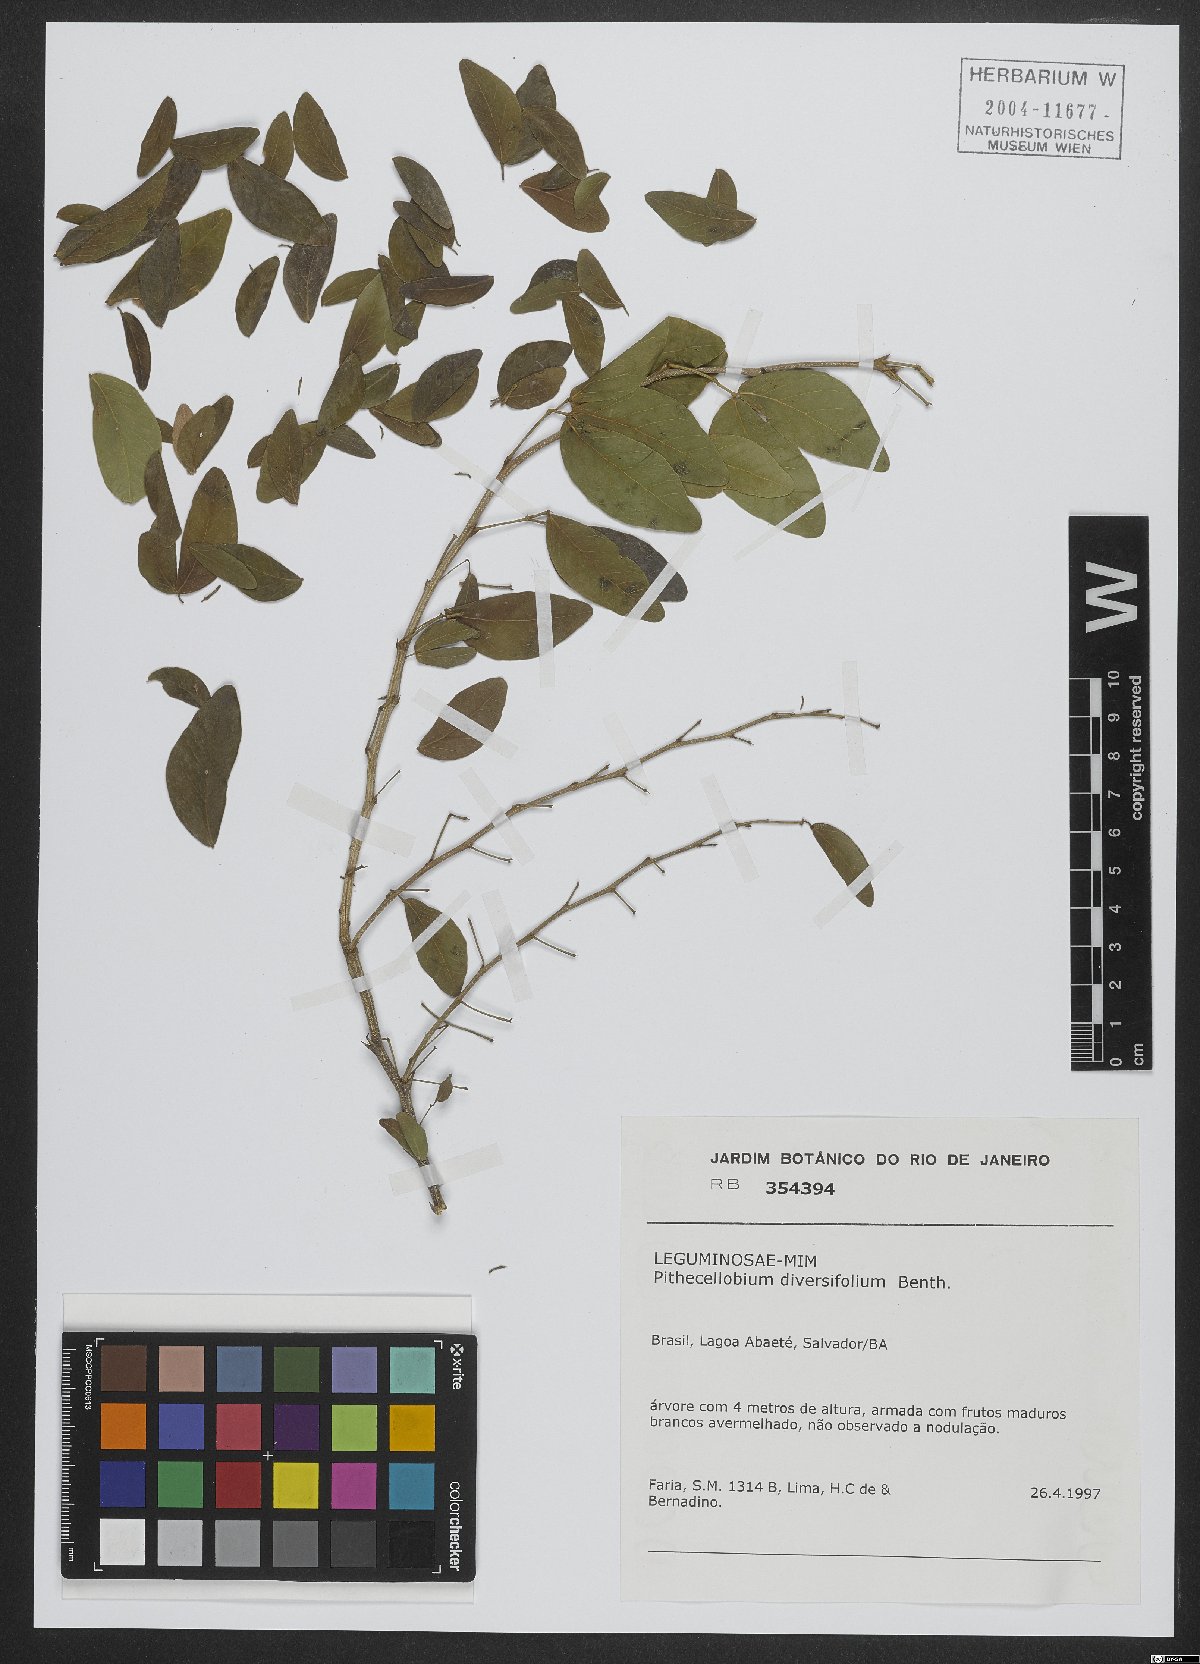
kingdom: Plantae
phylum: Tracheophyta
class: Magnoliopsida
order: Fabales
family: Fabaceae
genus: Pithecellobium
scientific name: Pithecellobium diversifolium
